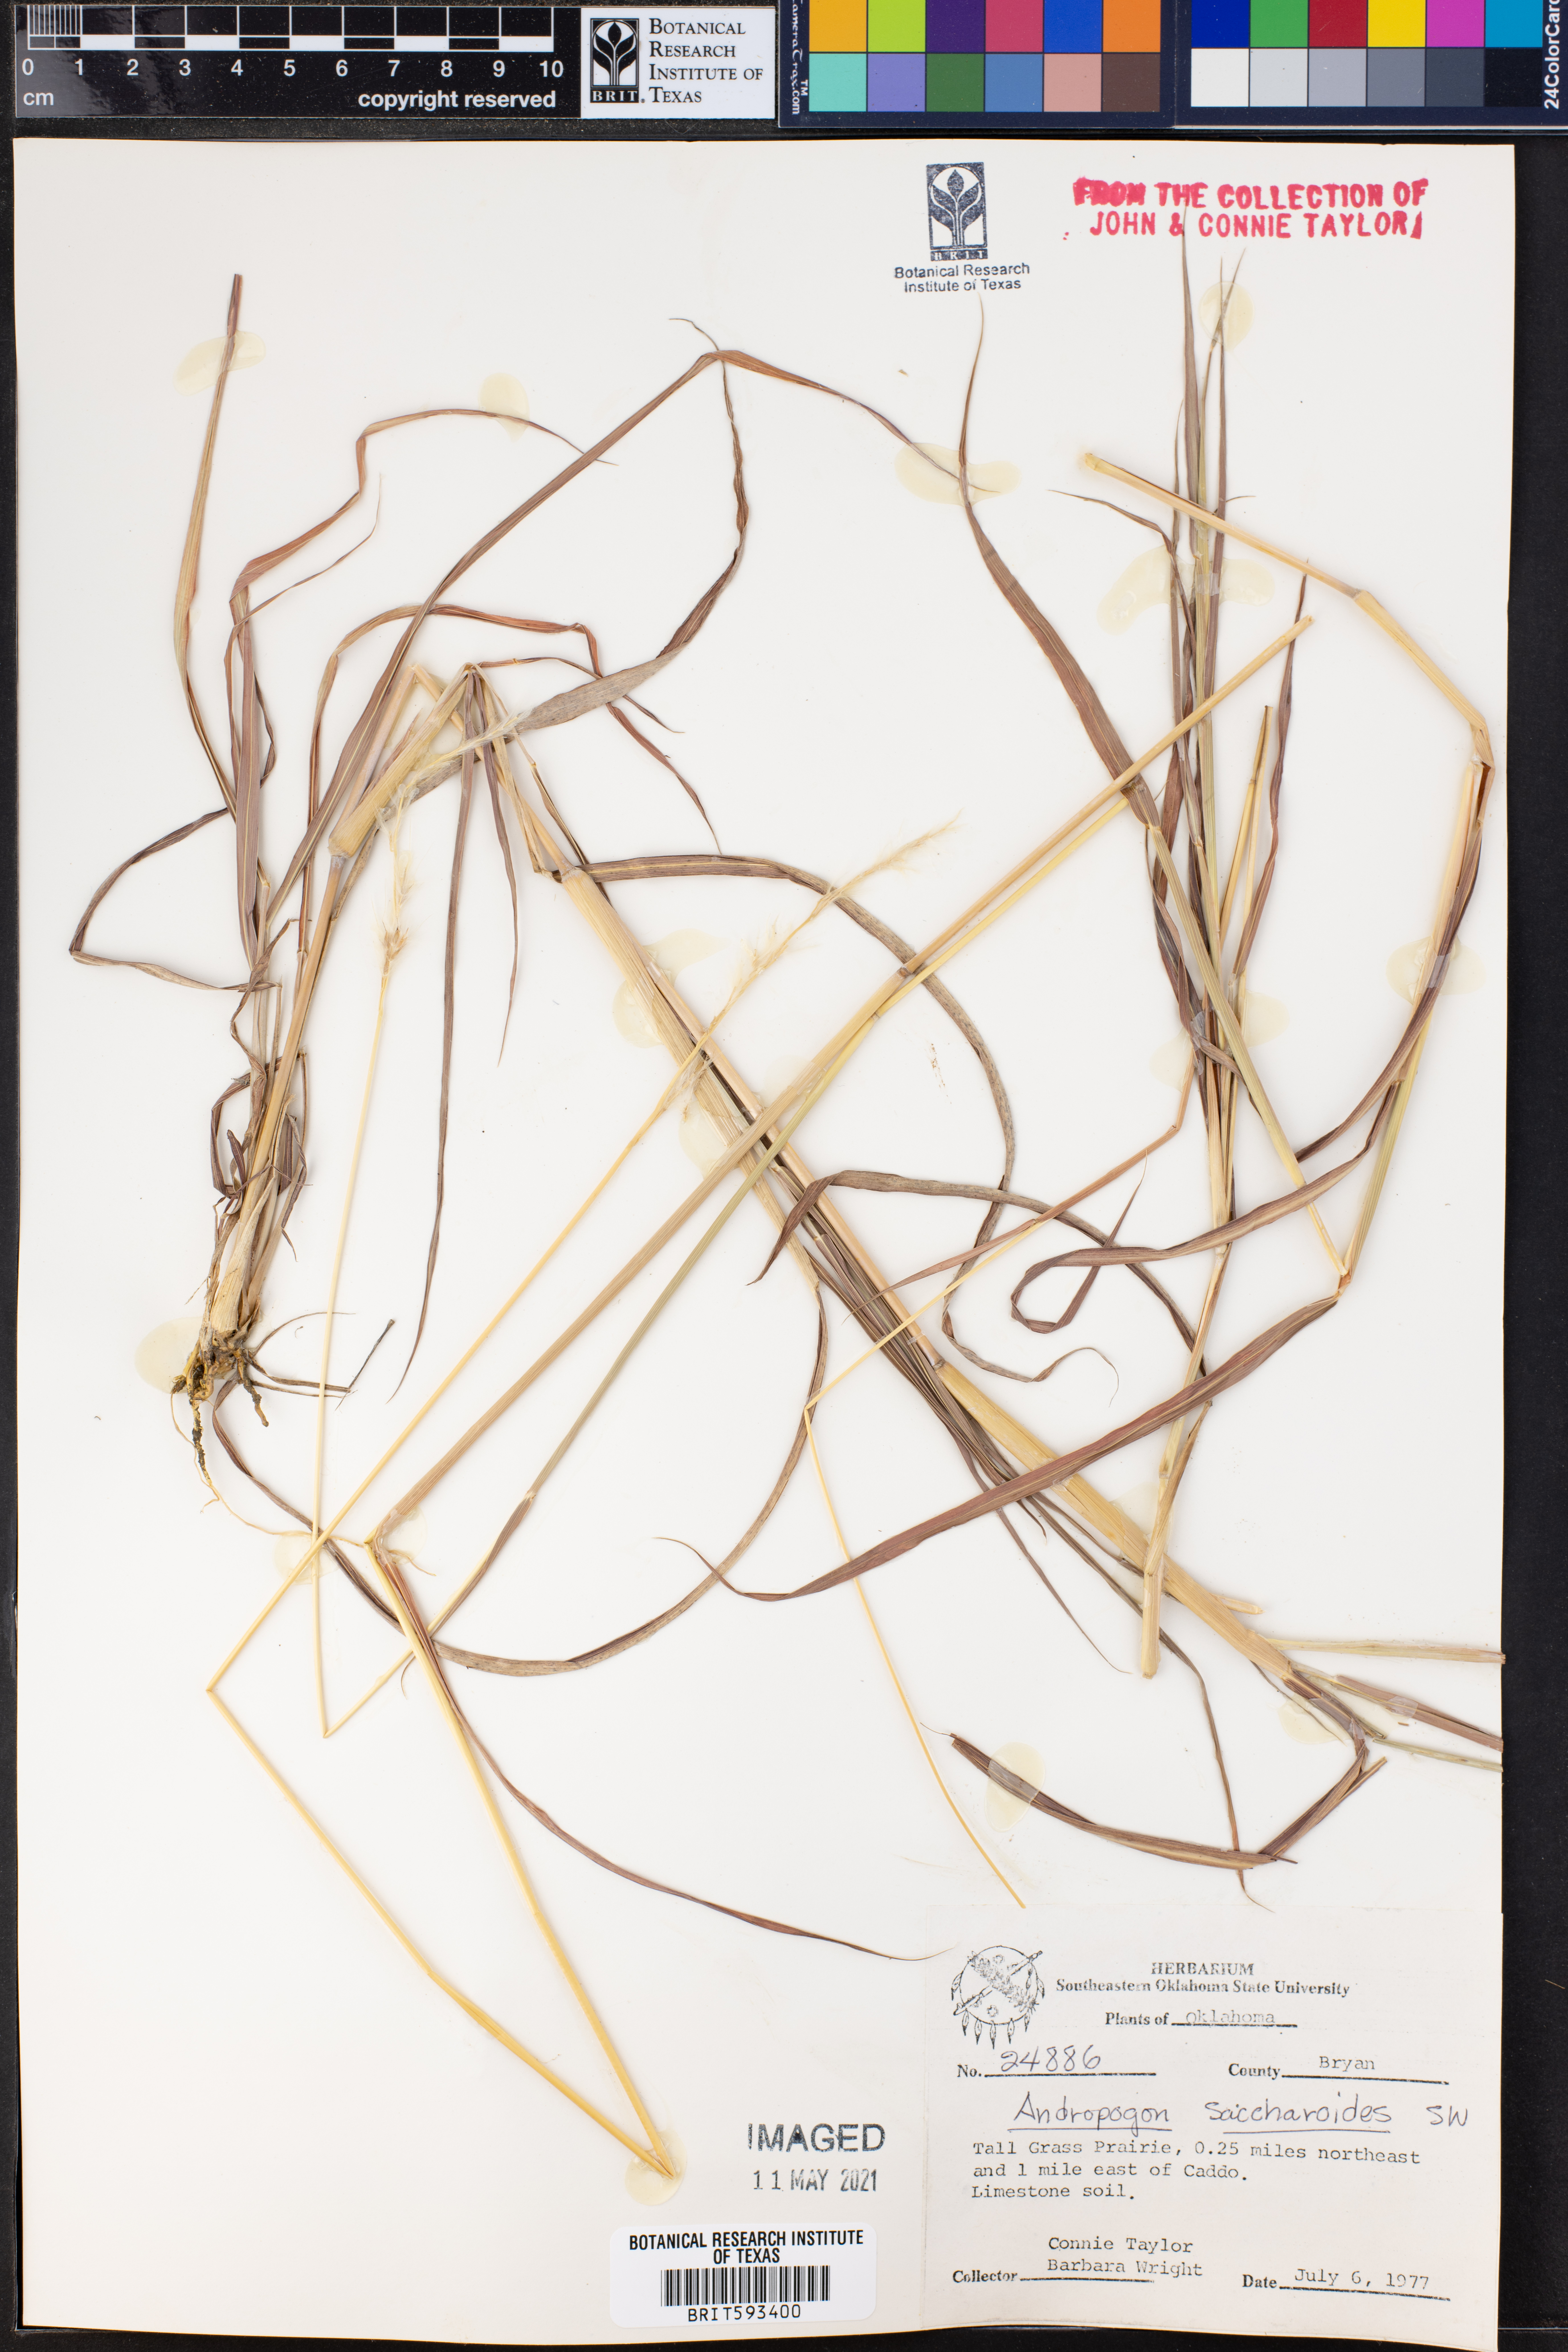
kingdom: Plantae
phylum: Tracheophyta
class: Liliopsida
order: Poales
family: Poaceae
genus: Bothriochloa
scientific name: Bothriochloa saccharoides
